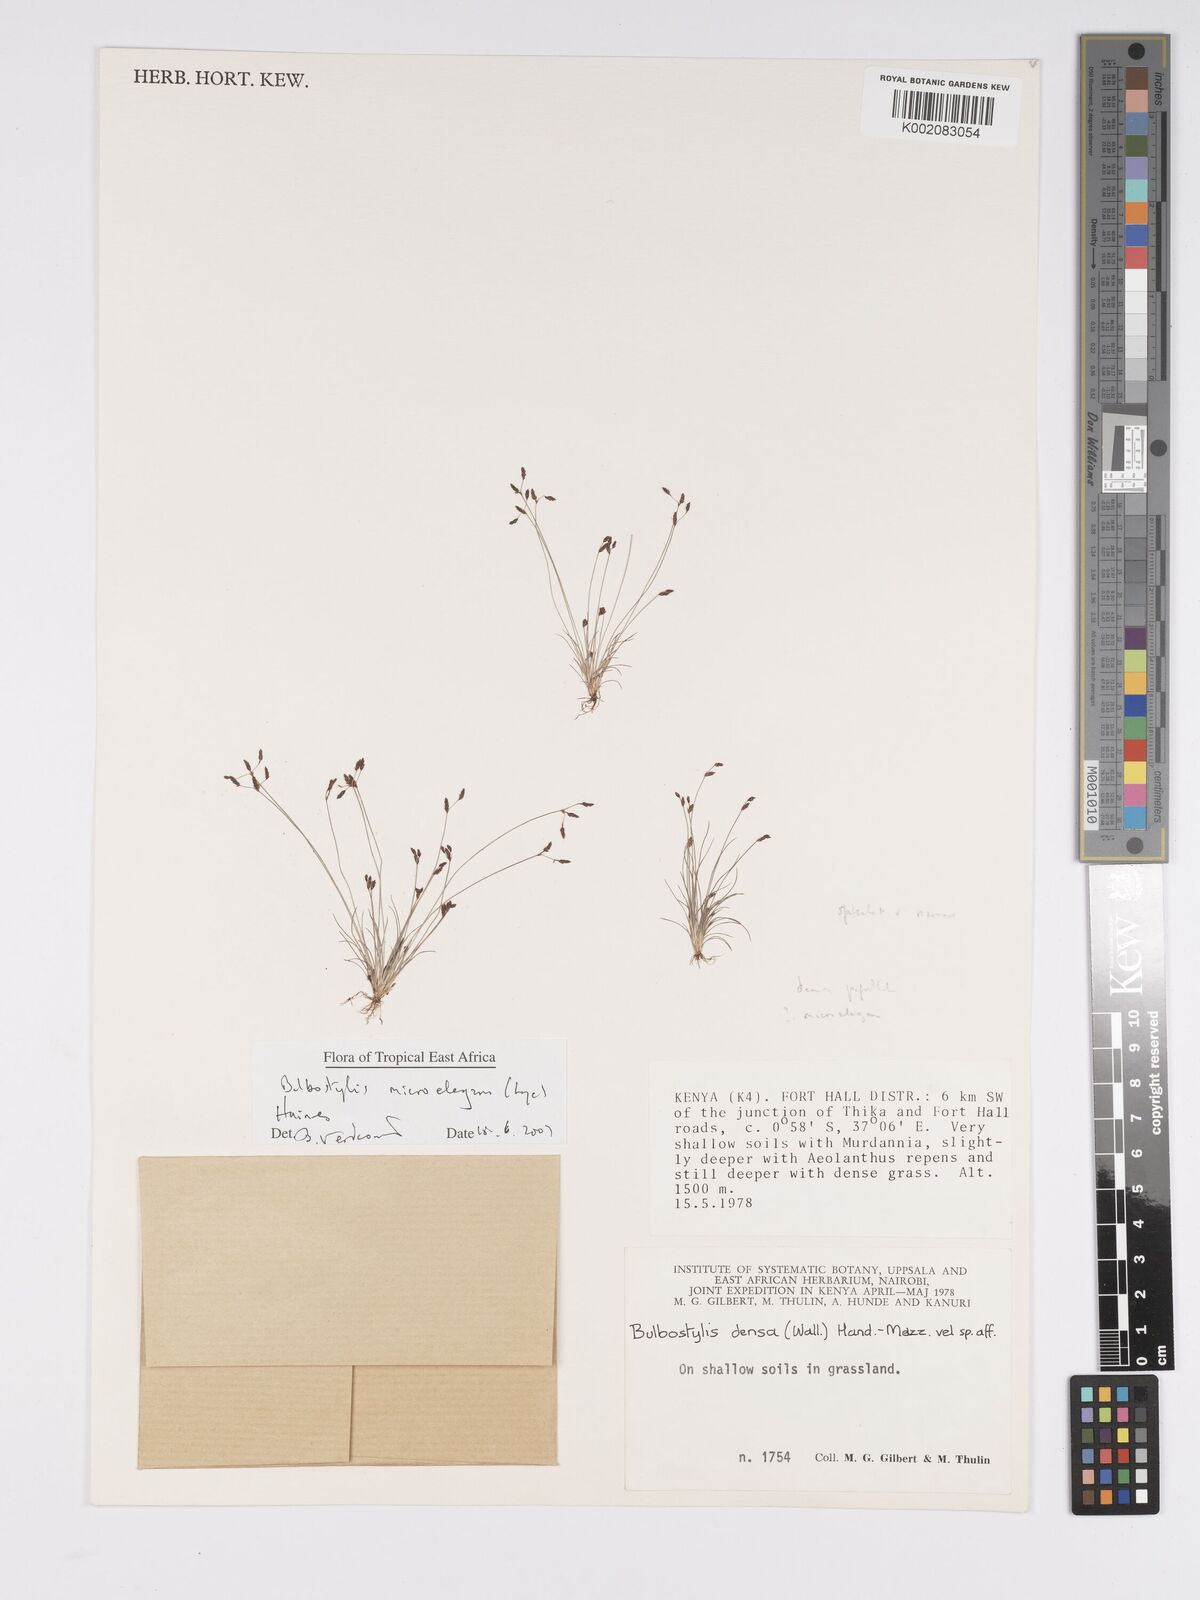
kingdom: Plantae
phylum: Tracheophyta
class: Liliopsida
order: Poales
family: Cyperaceae
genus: Bulbostylis
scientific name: Bulbostylis microelegans
